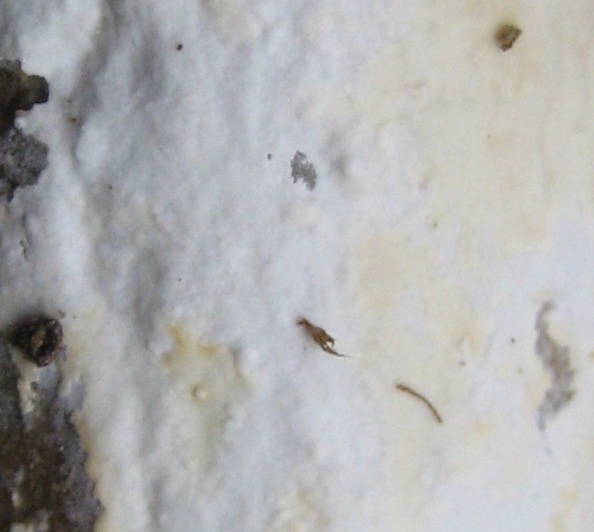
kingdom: Fungi
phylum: Basidiomycota
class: Agaricomycetes
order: Corticiales
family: Corticiaceae
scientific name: Corticiaceae
